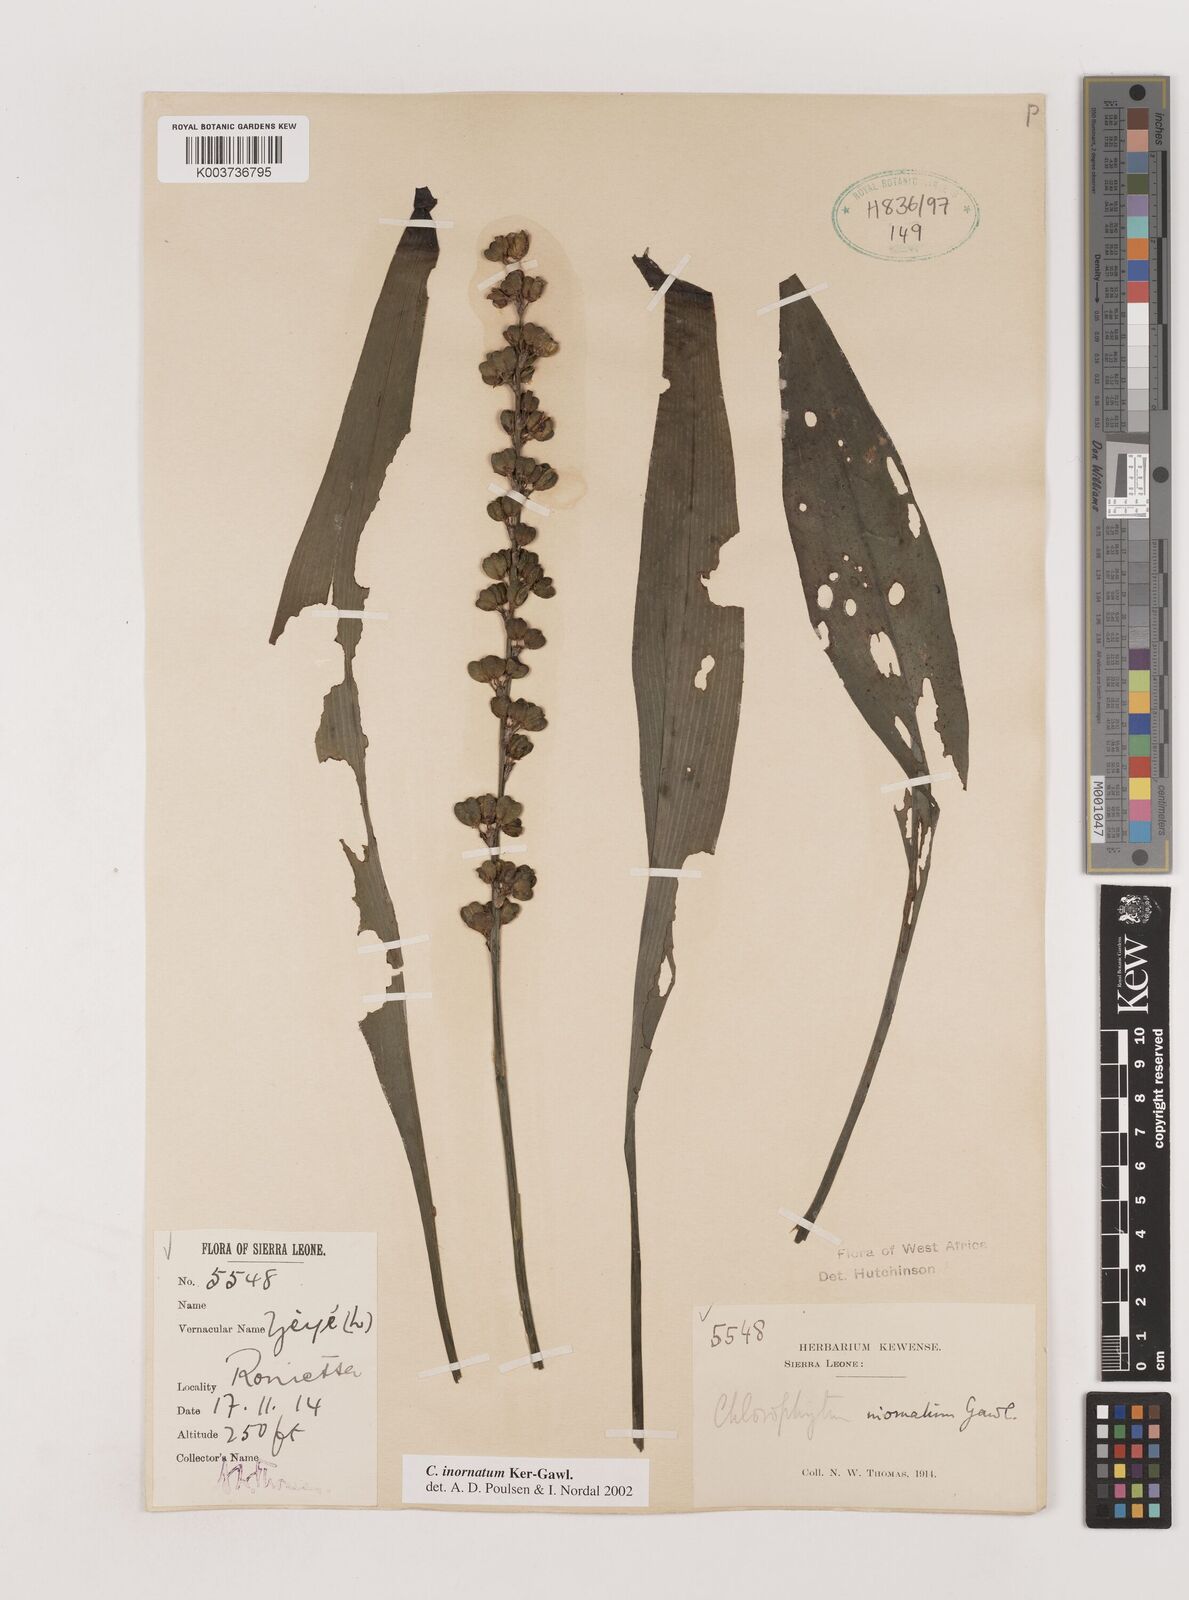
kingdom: Plantae
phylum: Tracheophyta
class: Liliopsida
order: Asparagales
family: Asparagaceae
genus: Chlorophytum
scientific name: Chlorophytum inornatum
